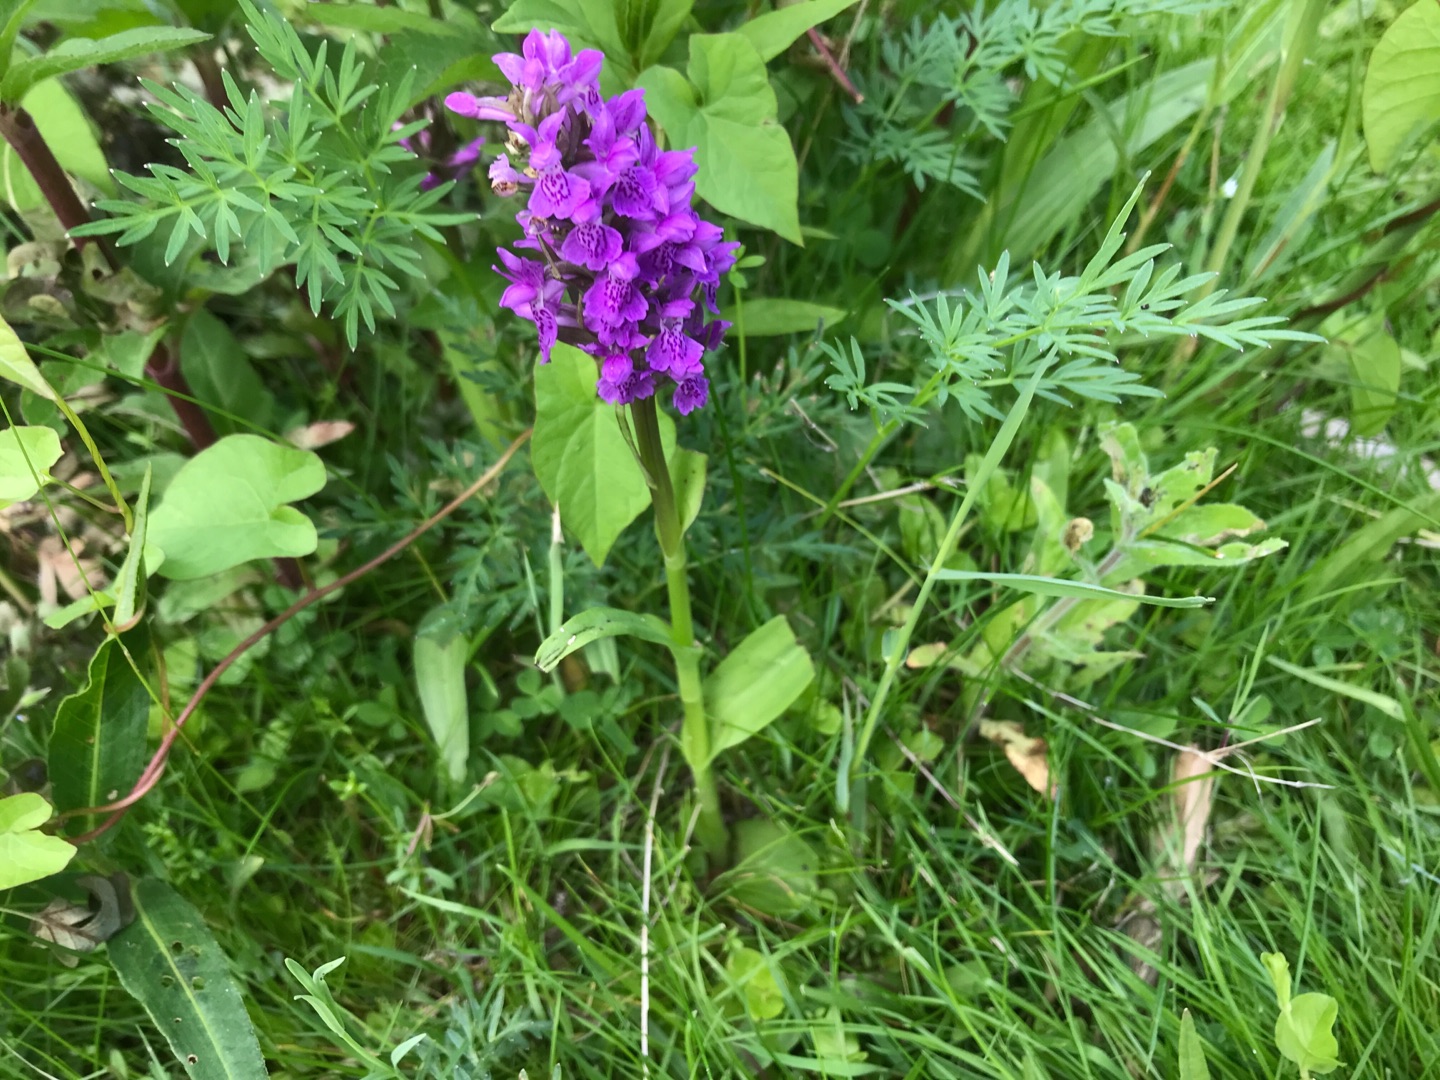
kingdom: Plantae
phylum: Tracheophyta
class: Liliopsida
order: Asparagales
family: Orchidaceae
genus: Dactylorhiza
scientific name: Dactylorhiza majalis
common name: Purpur-gøgeurt
